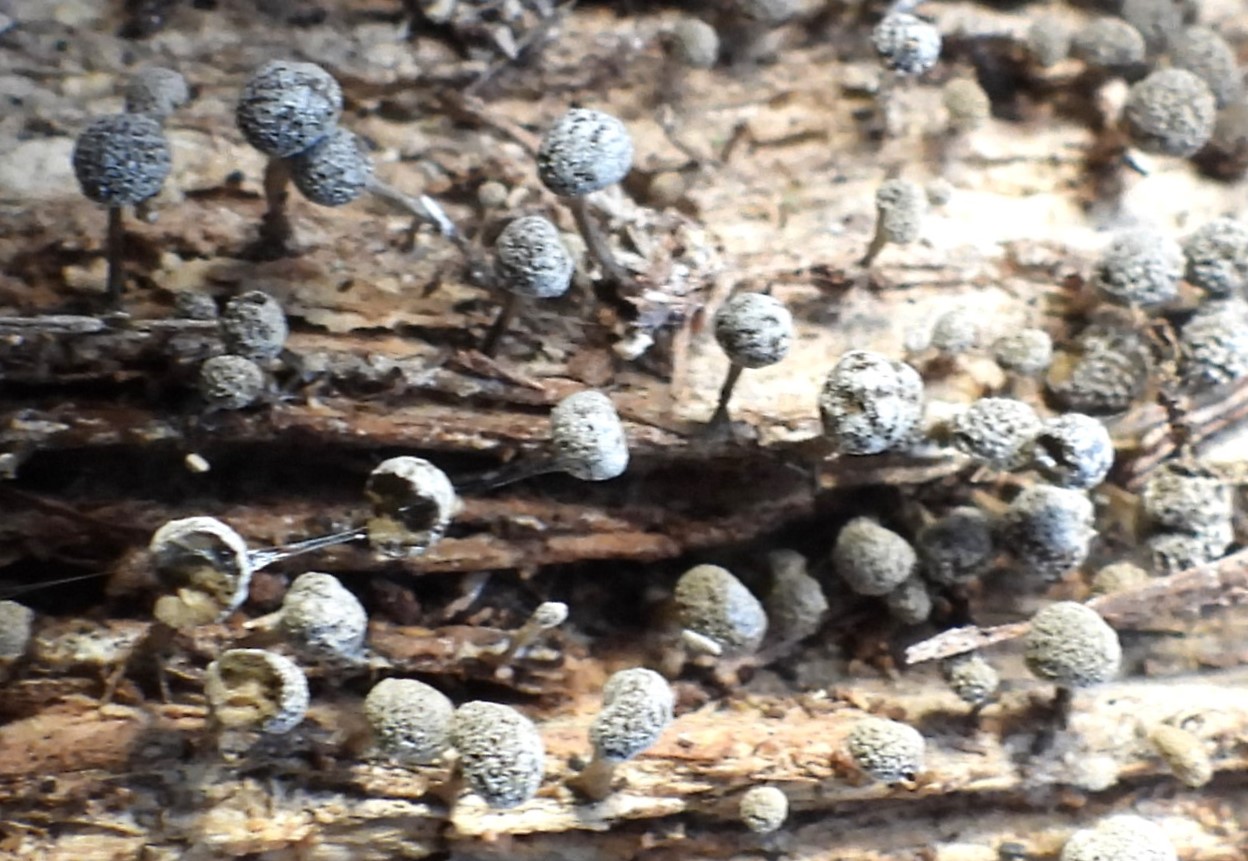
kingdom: Fungi
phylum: Basidiomycota
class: Atractiellomycetes
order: Atractiellales
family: Phleogenaceae
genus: Phleogena
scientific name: Phleogena faginea
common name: pudderkølle
